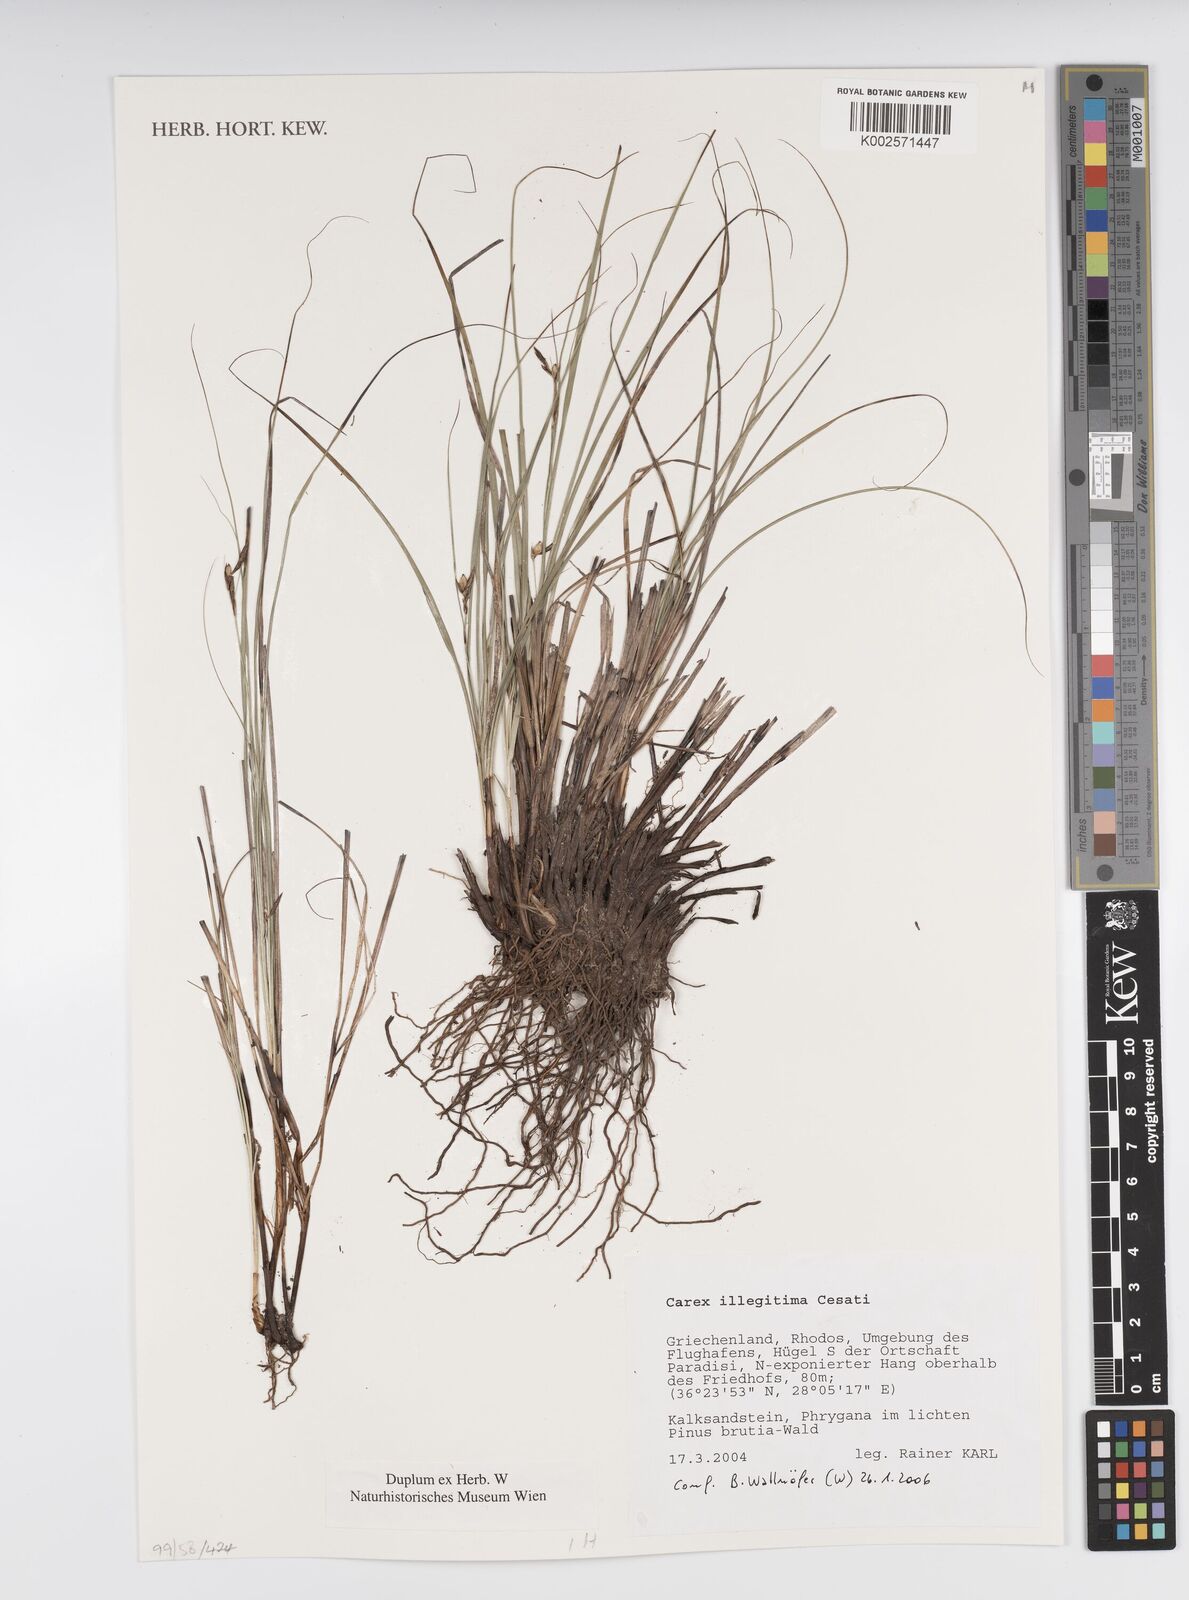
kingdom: Plantae
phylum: Tracheophyta
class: Liliopsida
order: Poales
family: Cyperaceae
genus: Carex
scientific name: Carex illegitima
